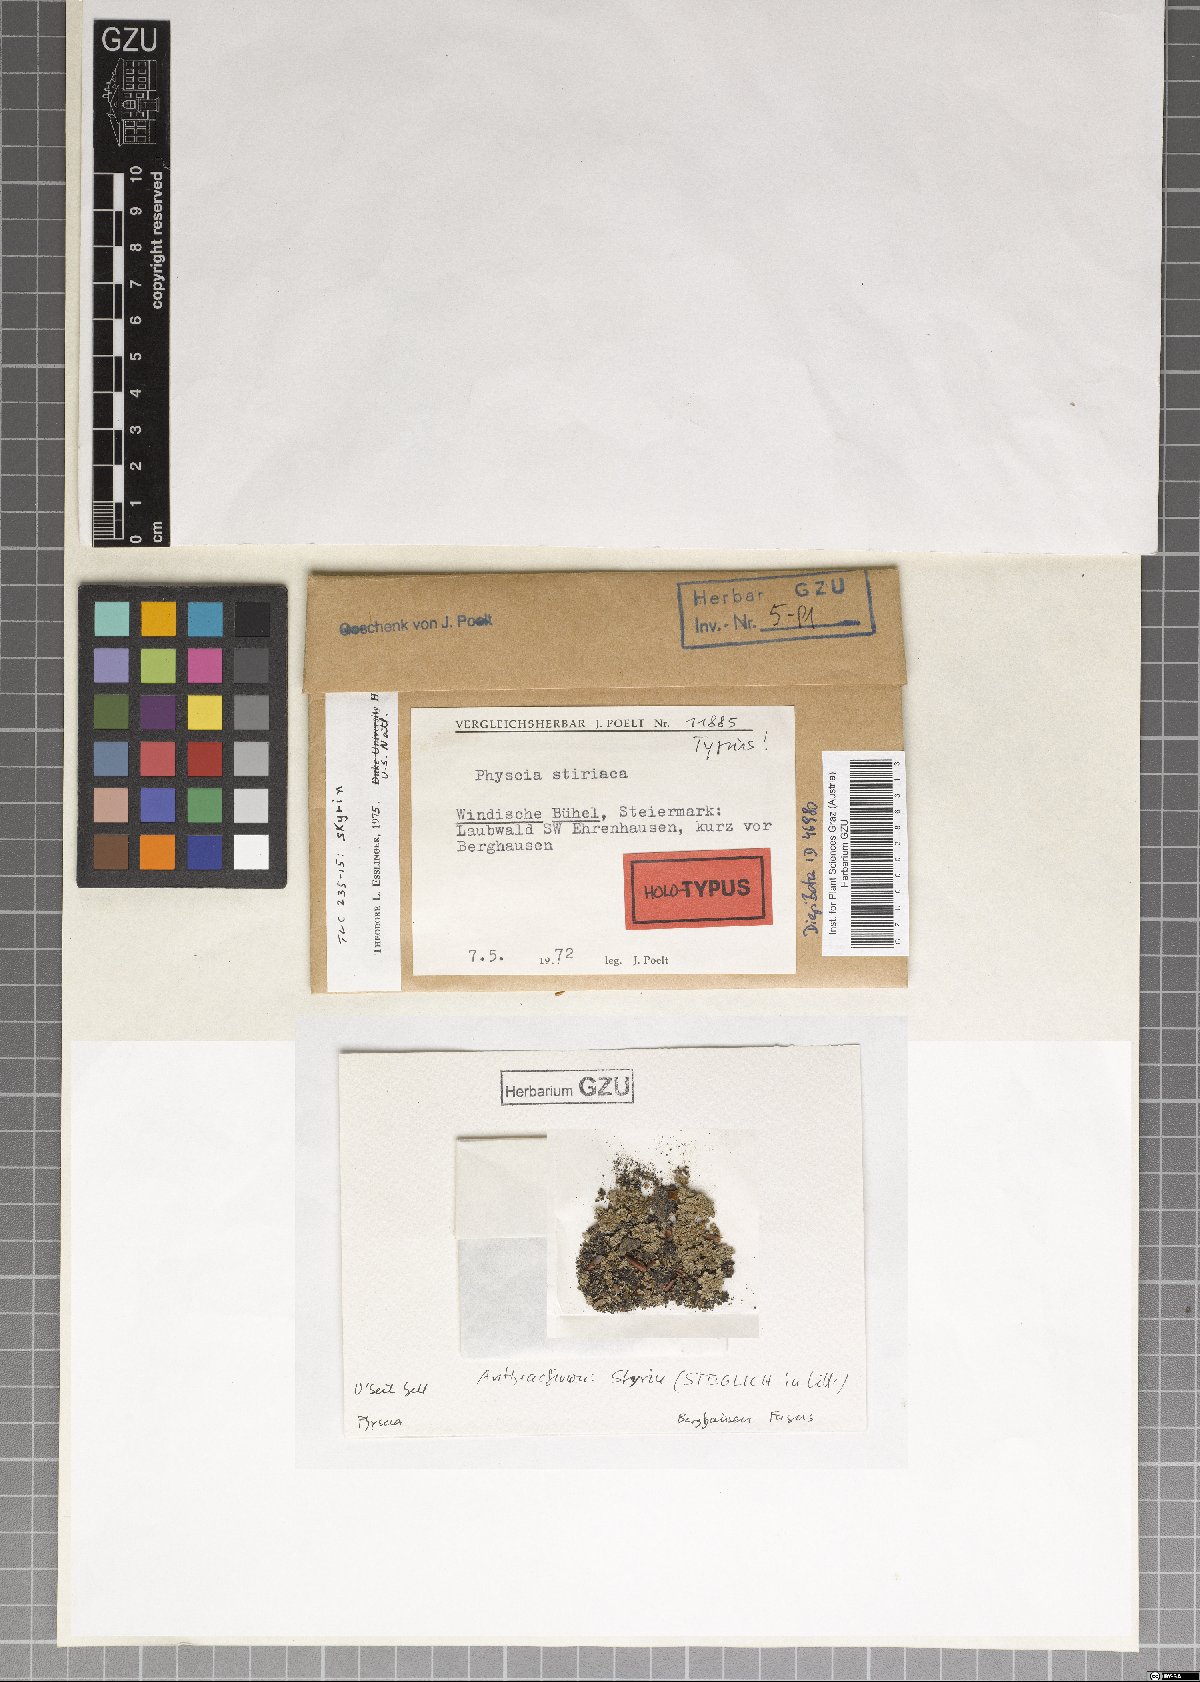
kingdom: Fungi
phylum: Ascomycota
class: Lecanoromycetes
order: Caliciales
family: Physciaceae
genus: Phaeophyscia
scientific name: Phaeophyscia stiriaca
